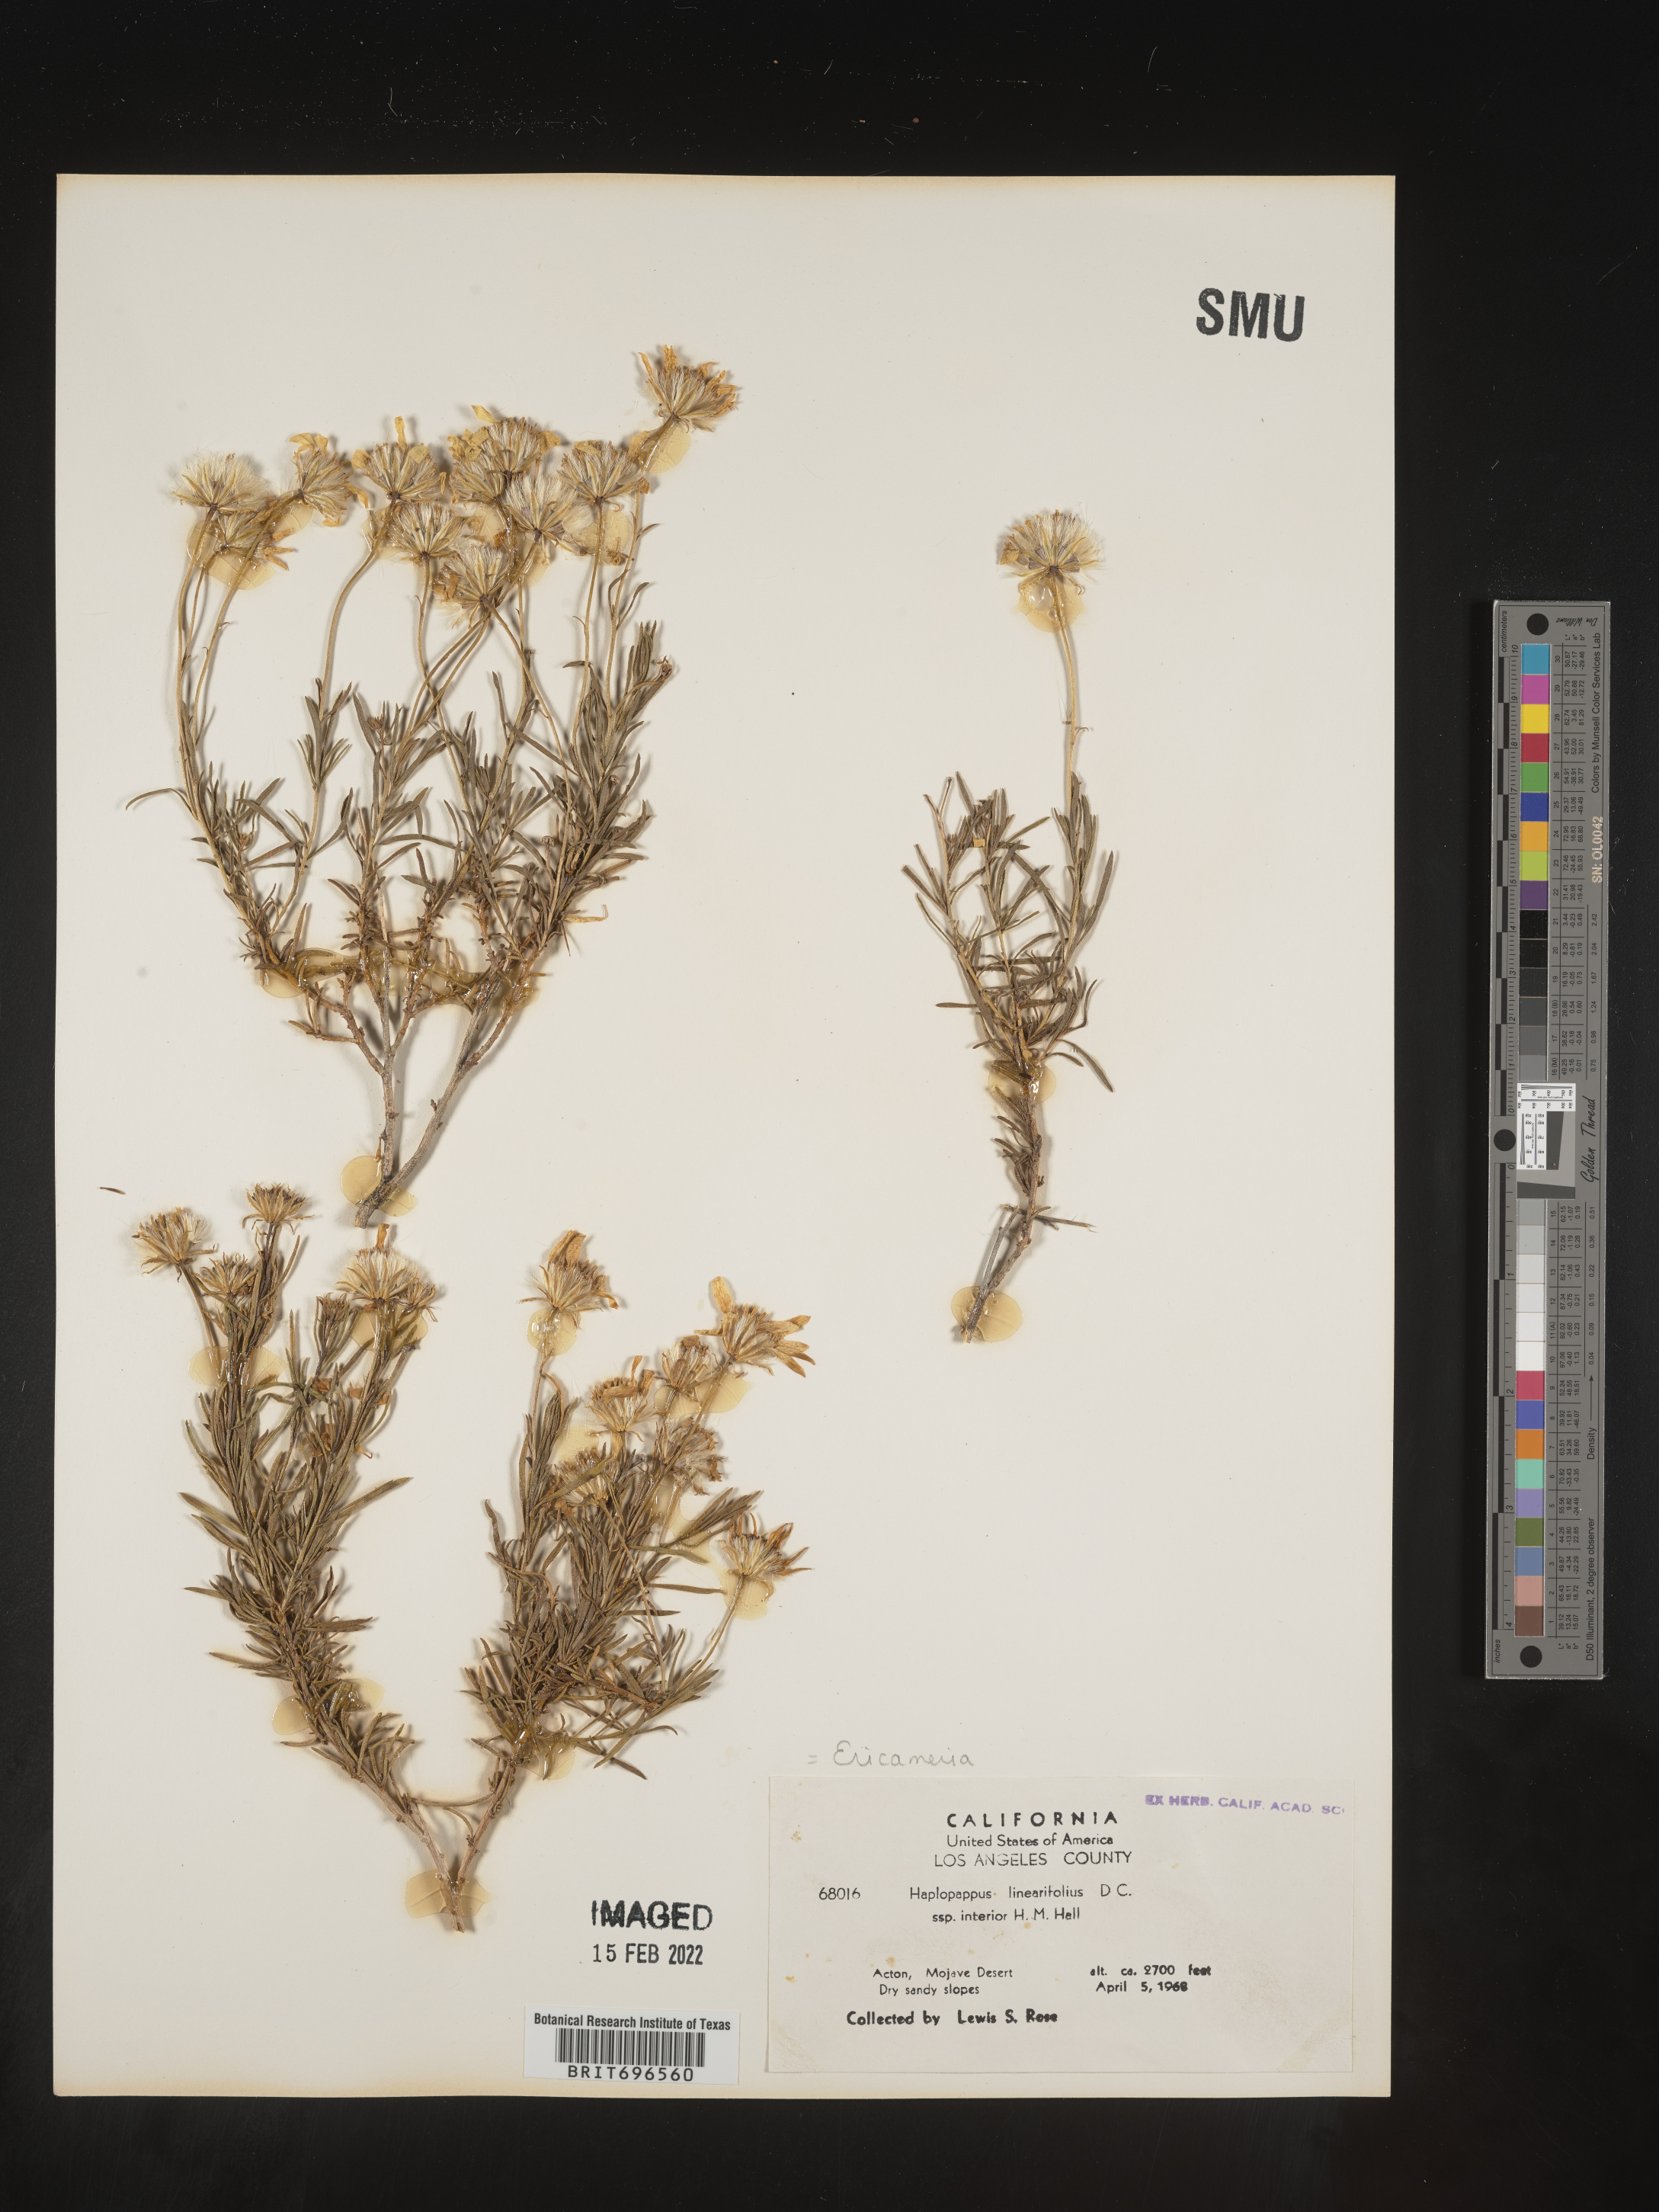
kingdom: Plantae
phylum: Tracheophyta
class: Magnoliopsida
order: Asterales
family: Asteraceae
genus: Ericameria
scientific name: Ericameria linearifolia
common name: Interior goldenbush
